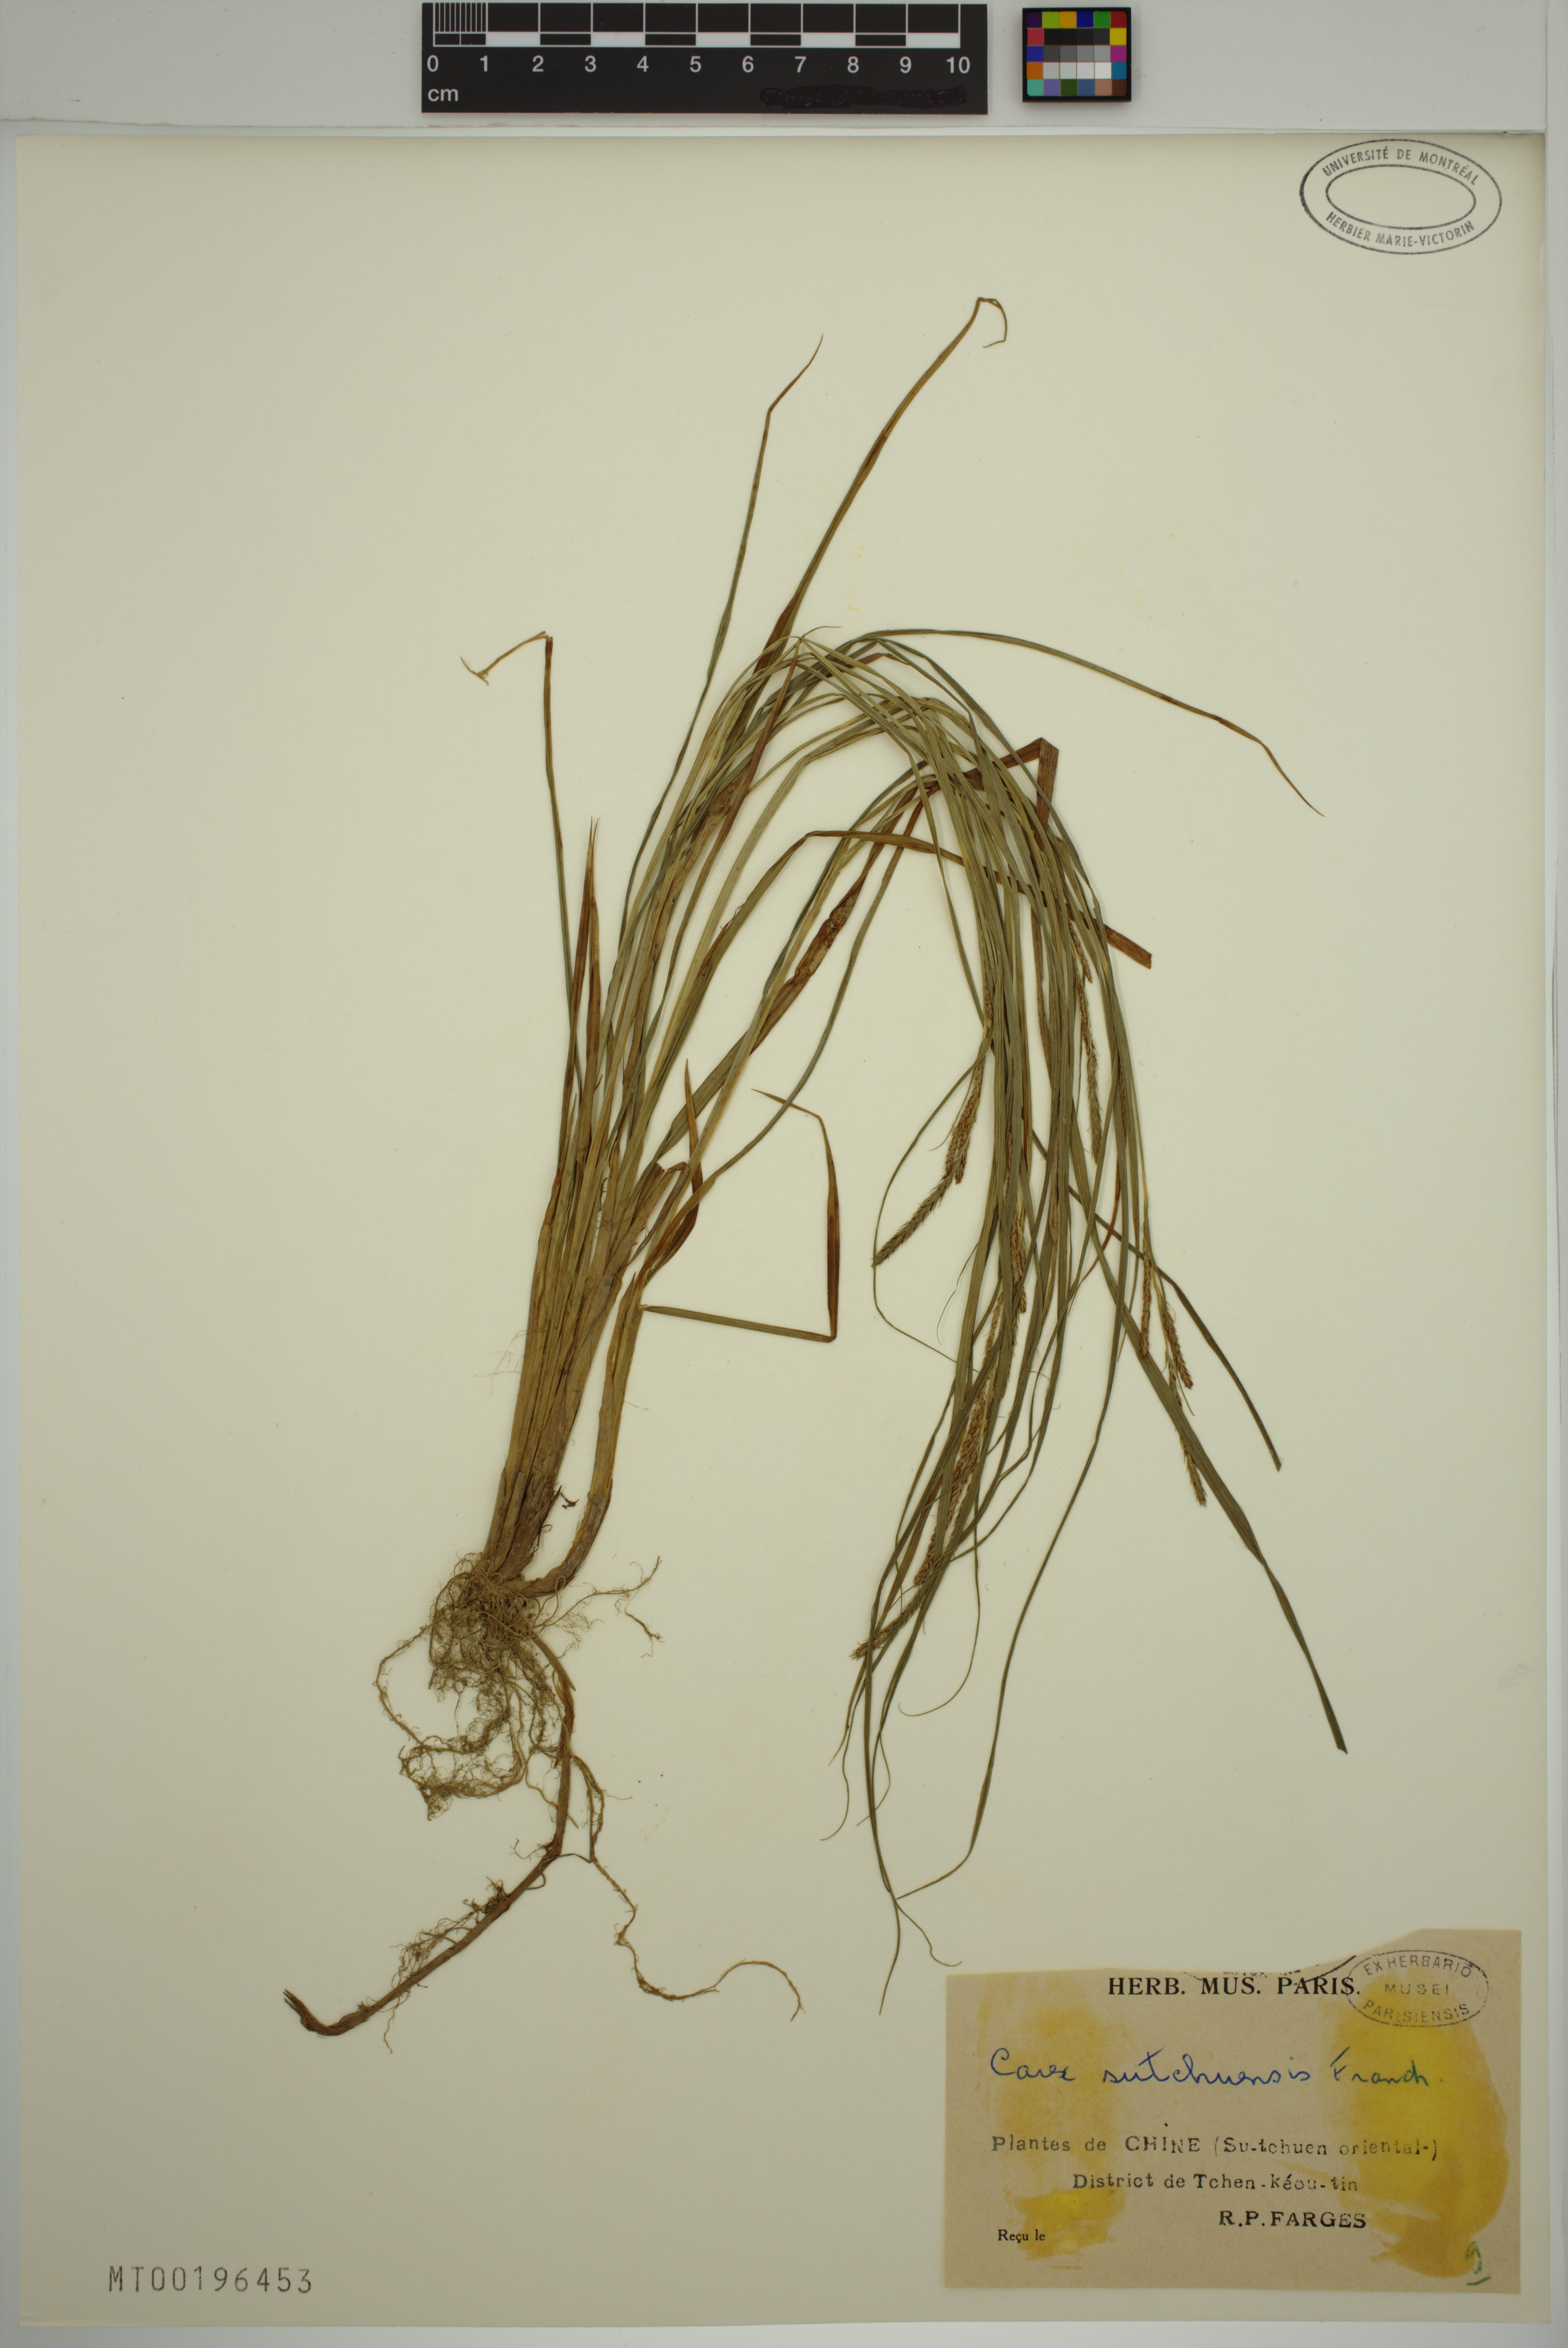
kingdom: Plantae
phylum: Tracheophyta
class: Liliopsida
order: Poales
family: Cyperaceae
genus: Carex
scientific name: Carex sutchuensis
